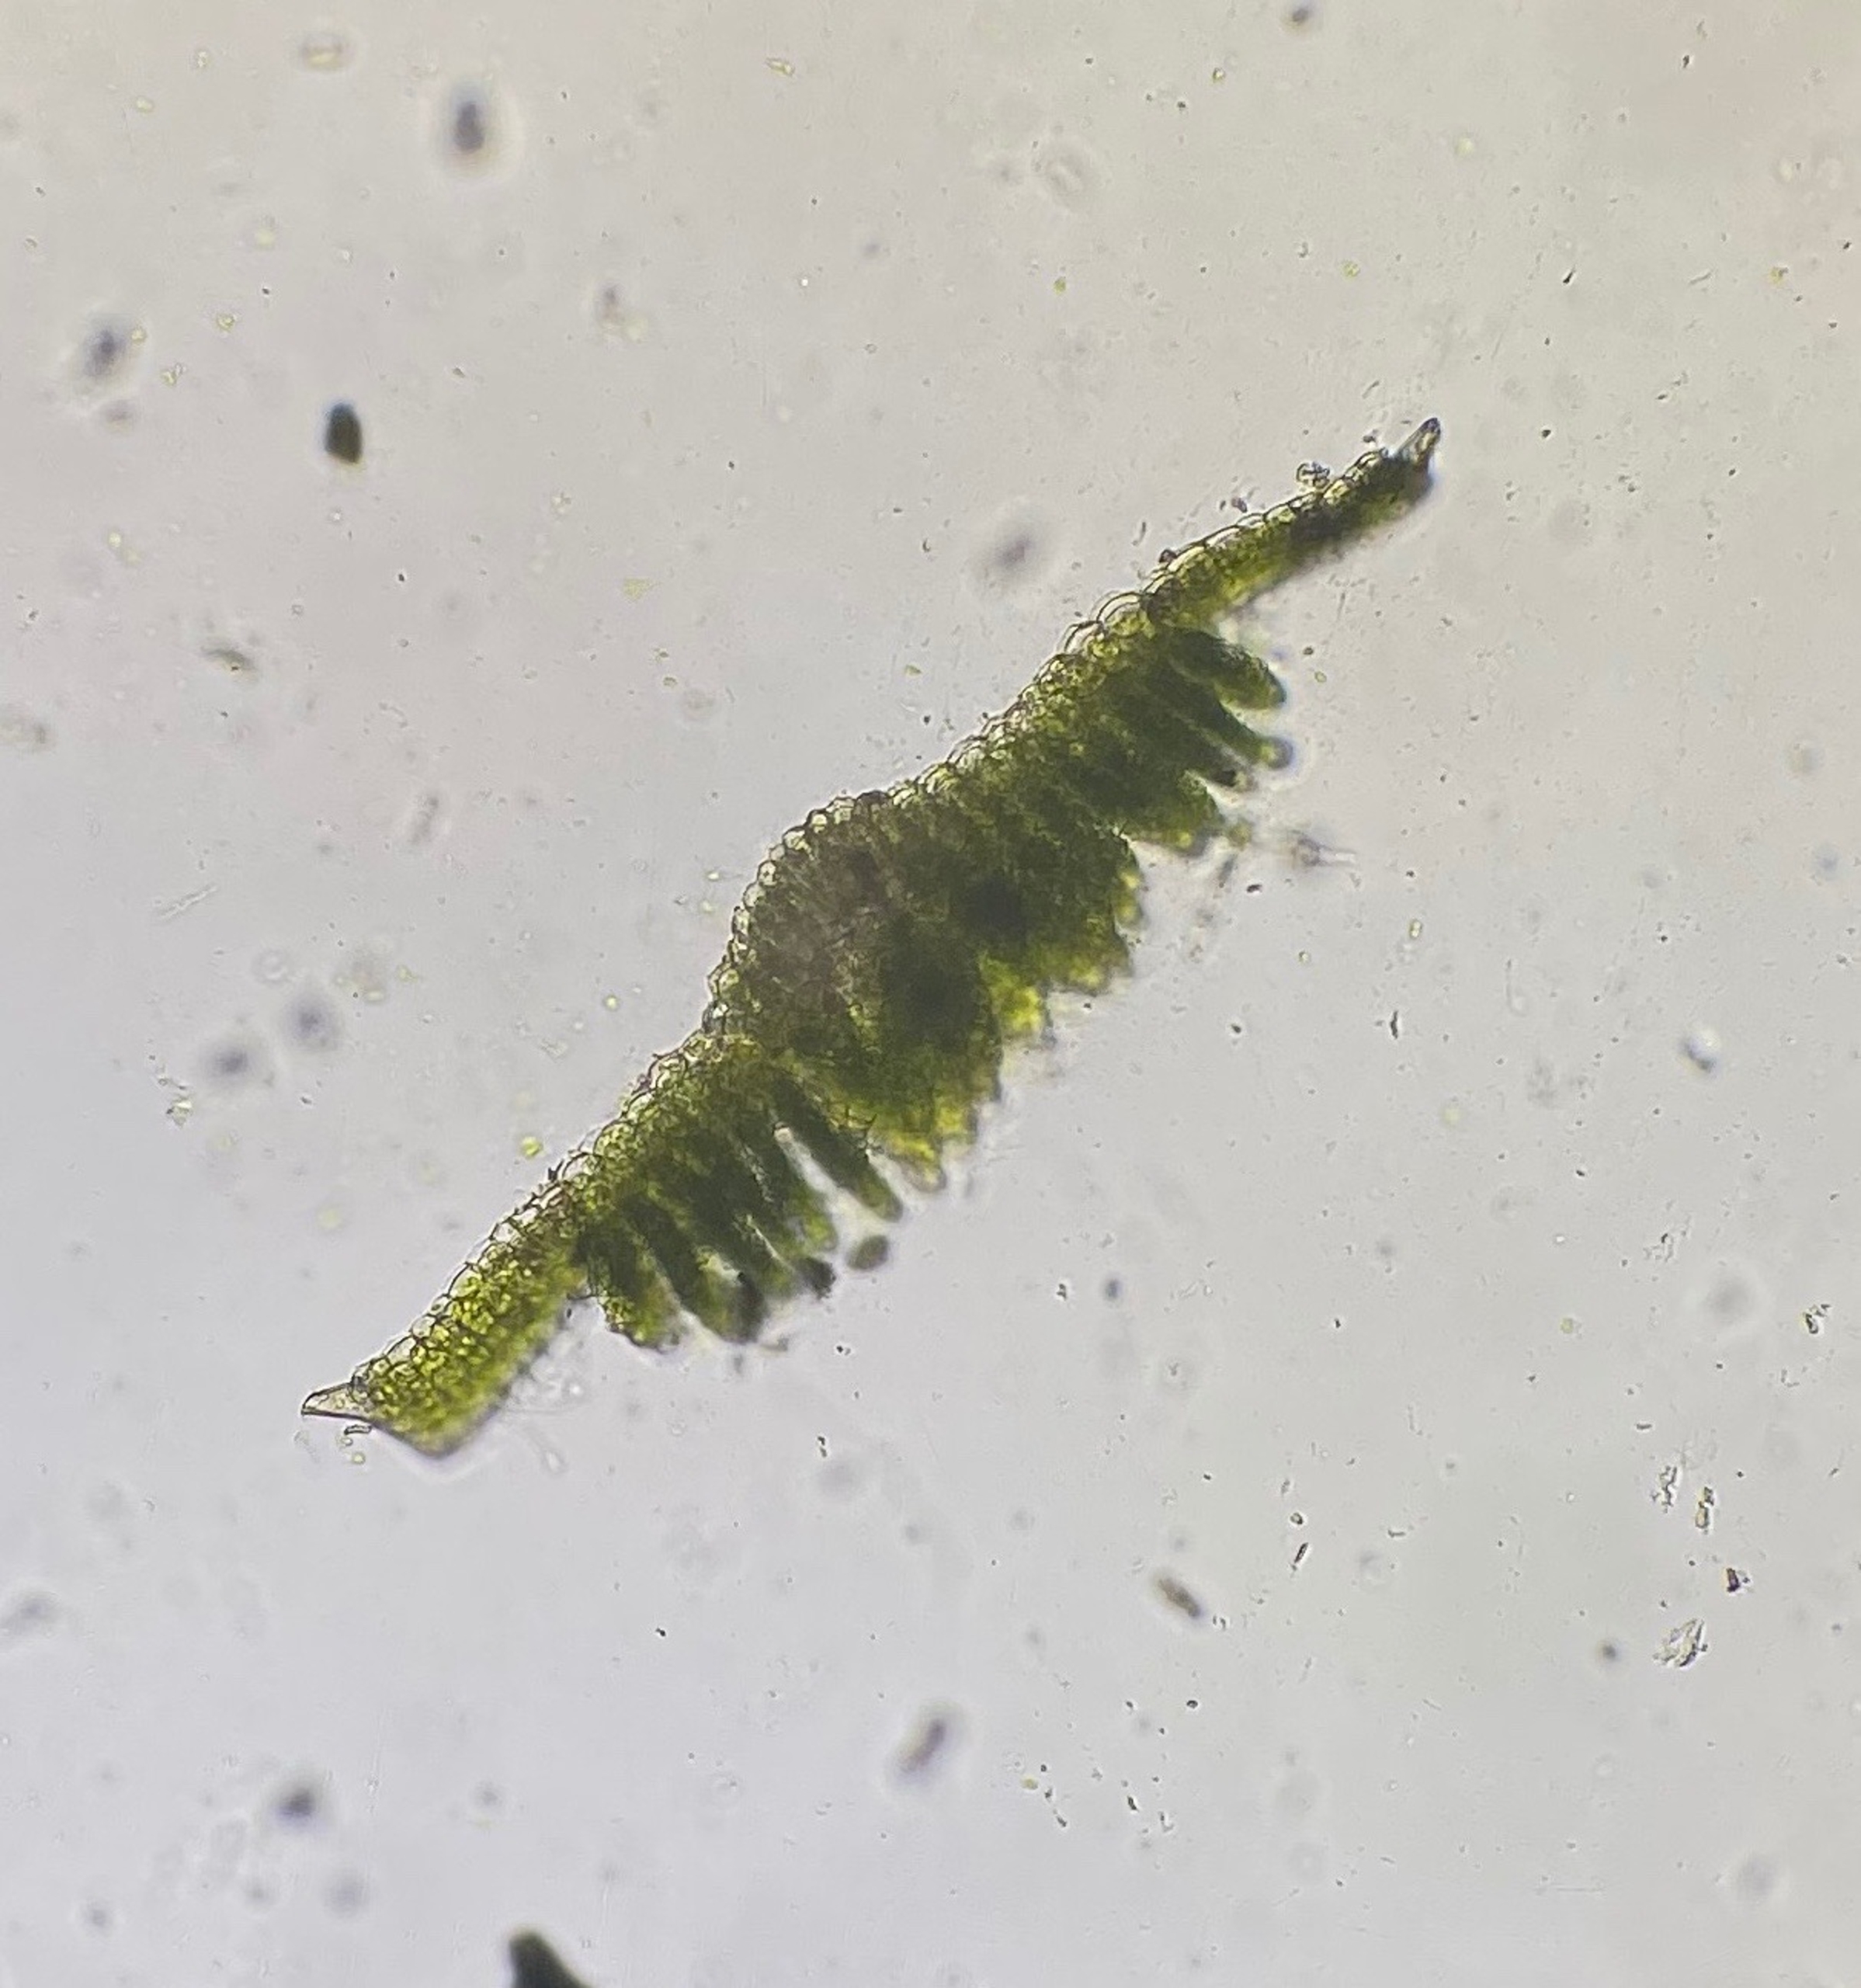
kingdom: Plantae
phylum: Bryophyta
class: Polytrichopsida
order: Polytrichales
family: Polytrichaceae
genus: Polytrichum
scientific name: Polytrichum formosum
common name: Skov-jomfruhår
